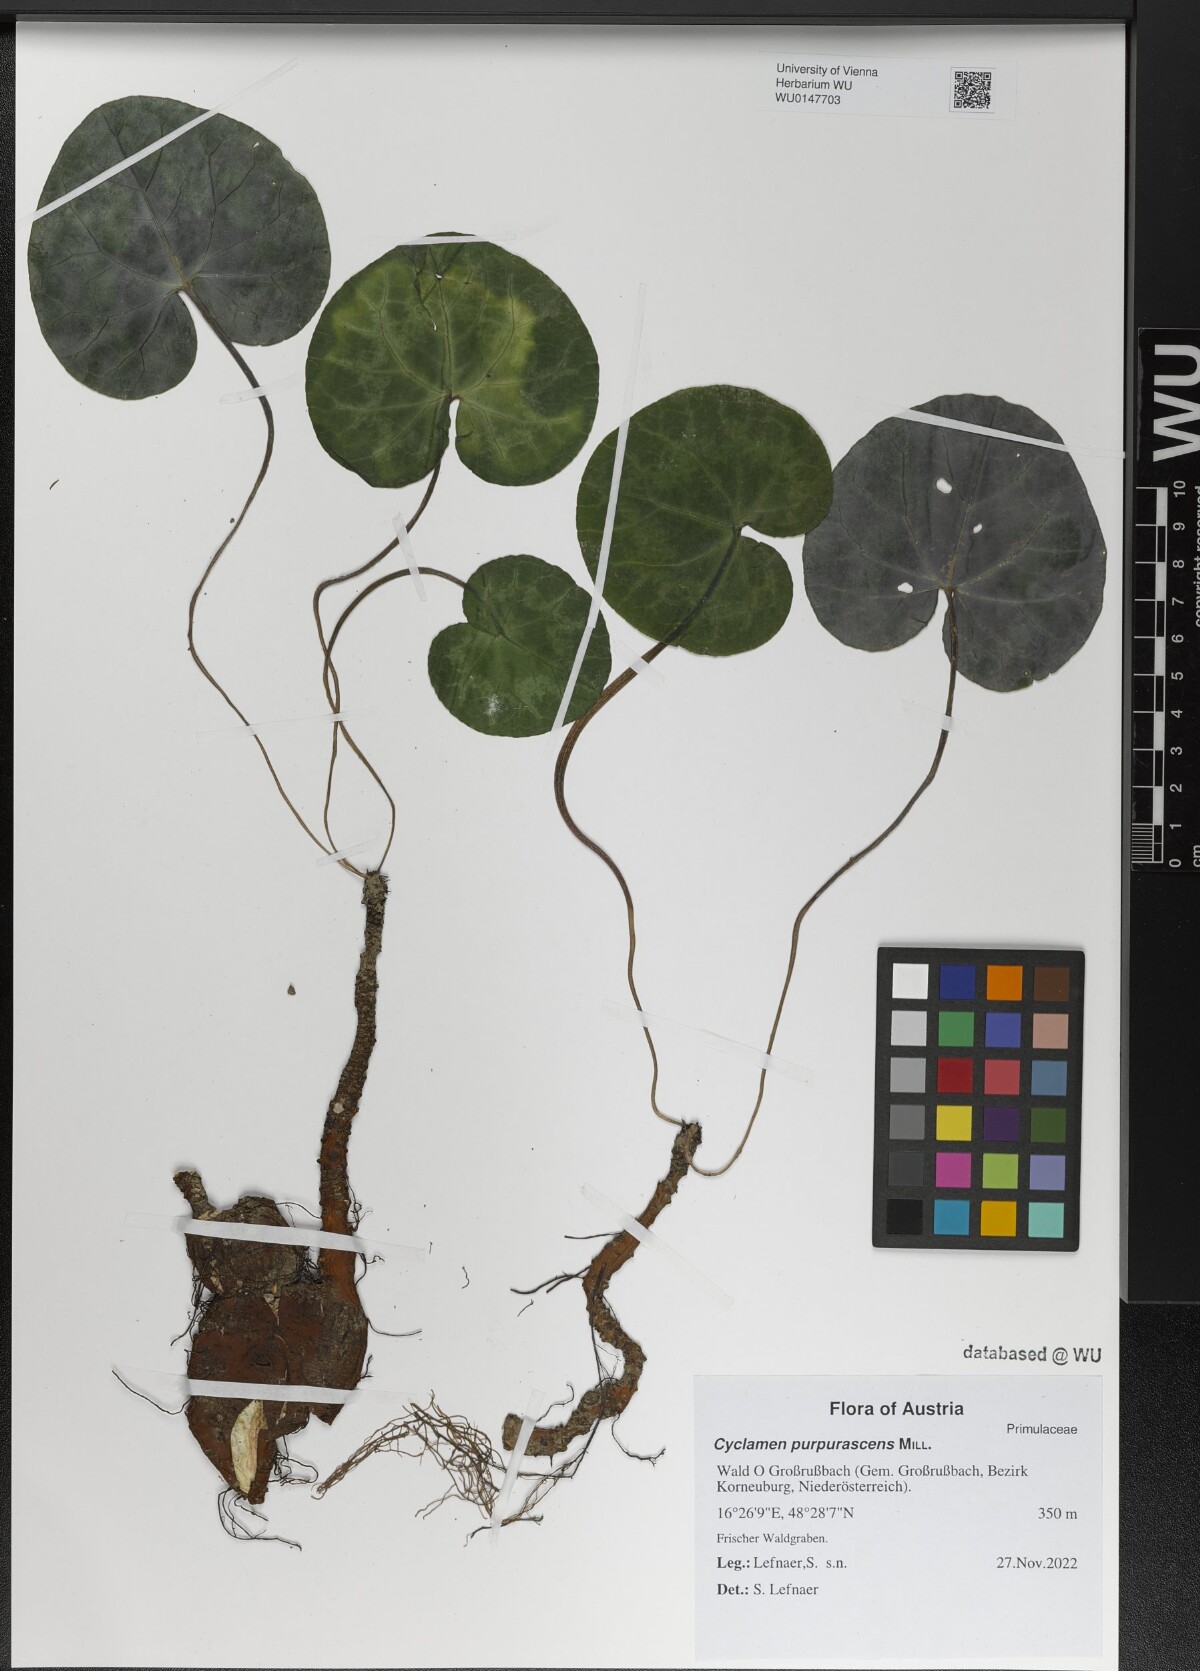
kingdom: Plantae
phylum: Tracheophyta
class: Magnoliopsida
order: Ericales
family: Primulaceae
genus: Cyclamen
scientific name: Cyclamen purpurascens
